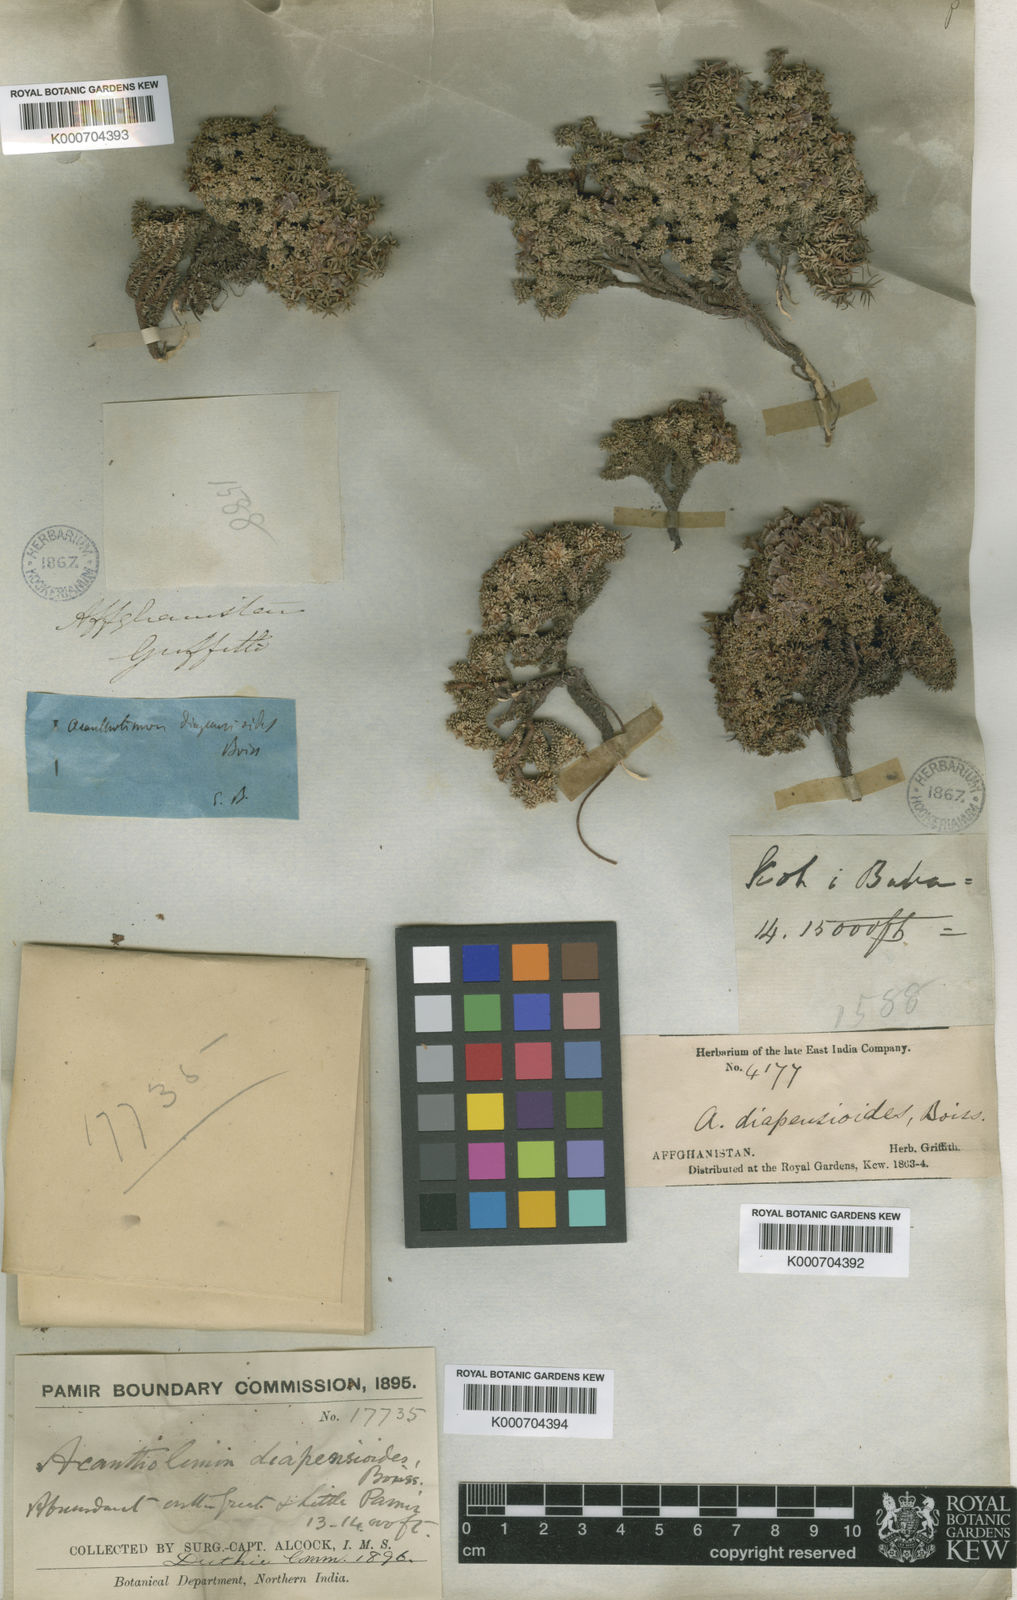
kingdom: Plantae
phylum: Tracheophyta
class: Magnoliopsida
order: Caryophyllales
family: Plumbaginaceae
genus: Acantholimon
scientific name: Acantholimon diapensioides
